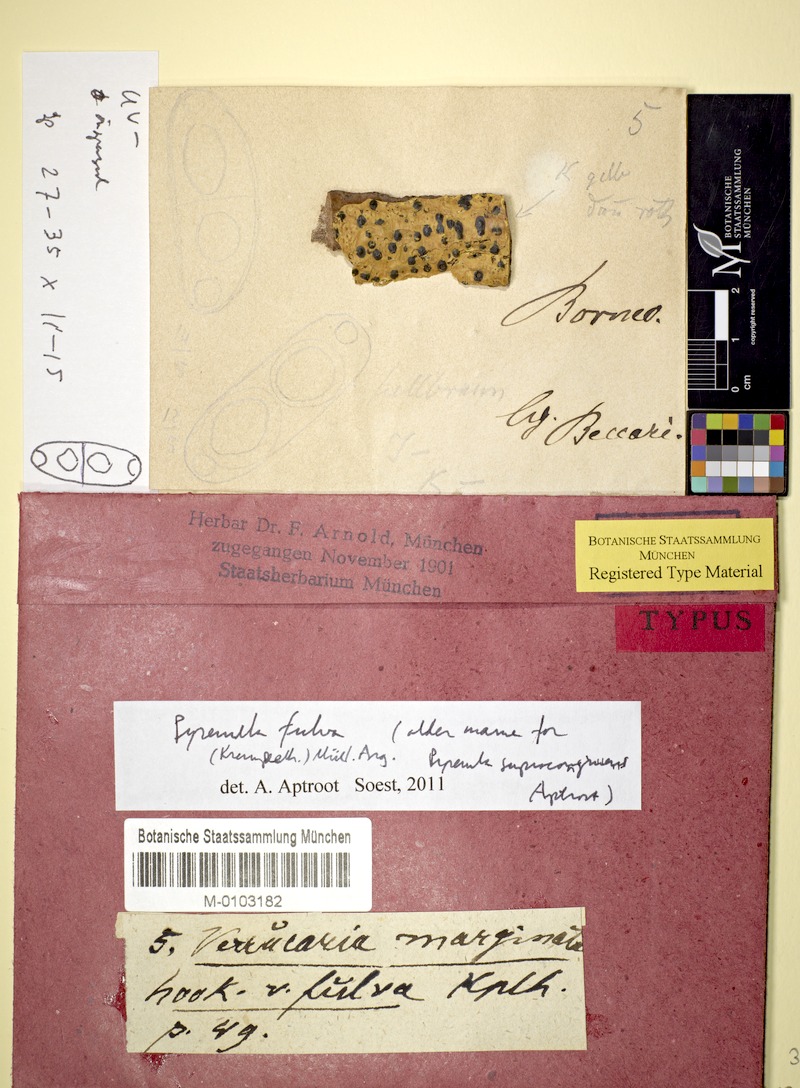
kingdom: Fungi
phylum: Ascomycota
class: Eurotiomycetes
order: Pyrenulales
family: Pyrenulaceae
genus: Pyrenula
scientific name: Pyrenula mamillana
